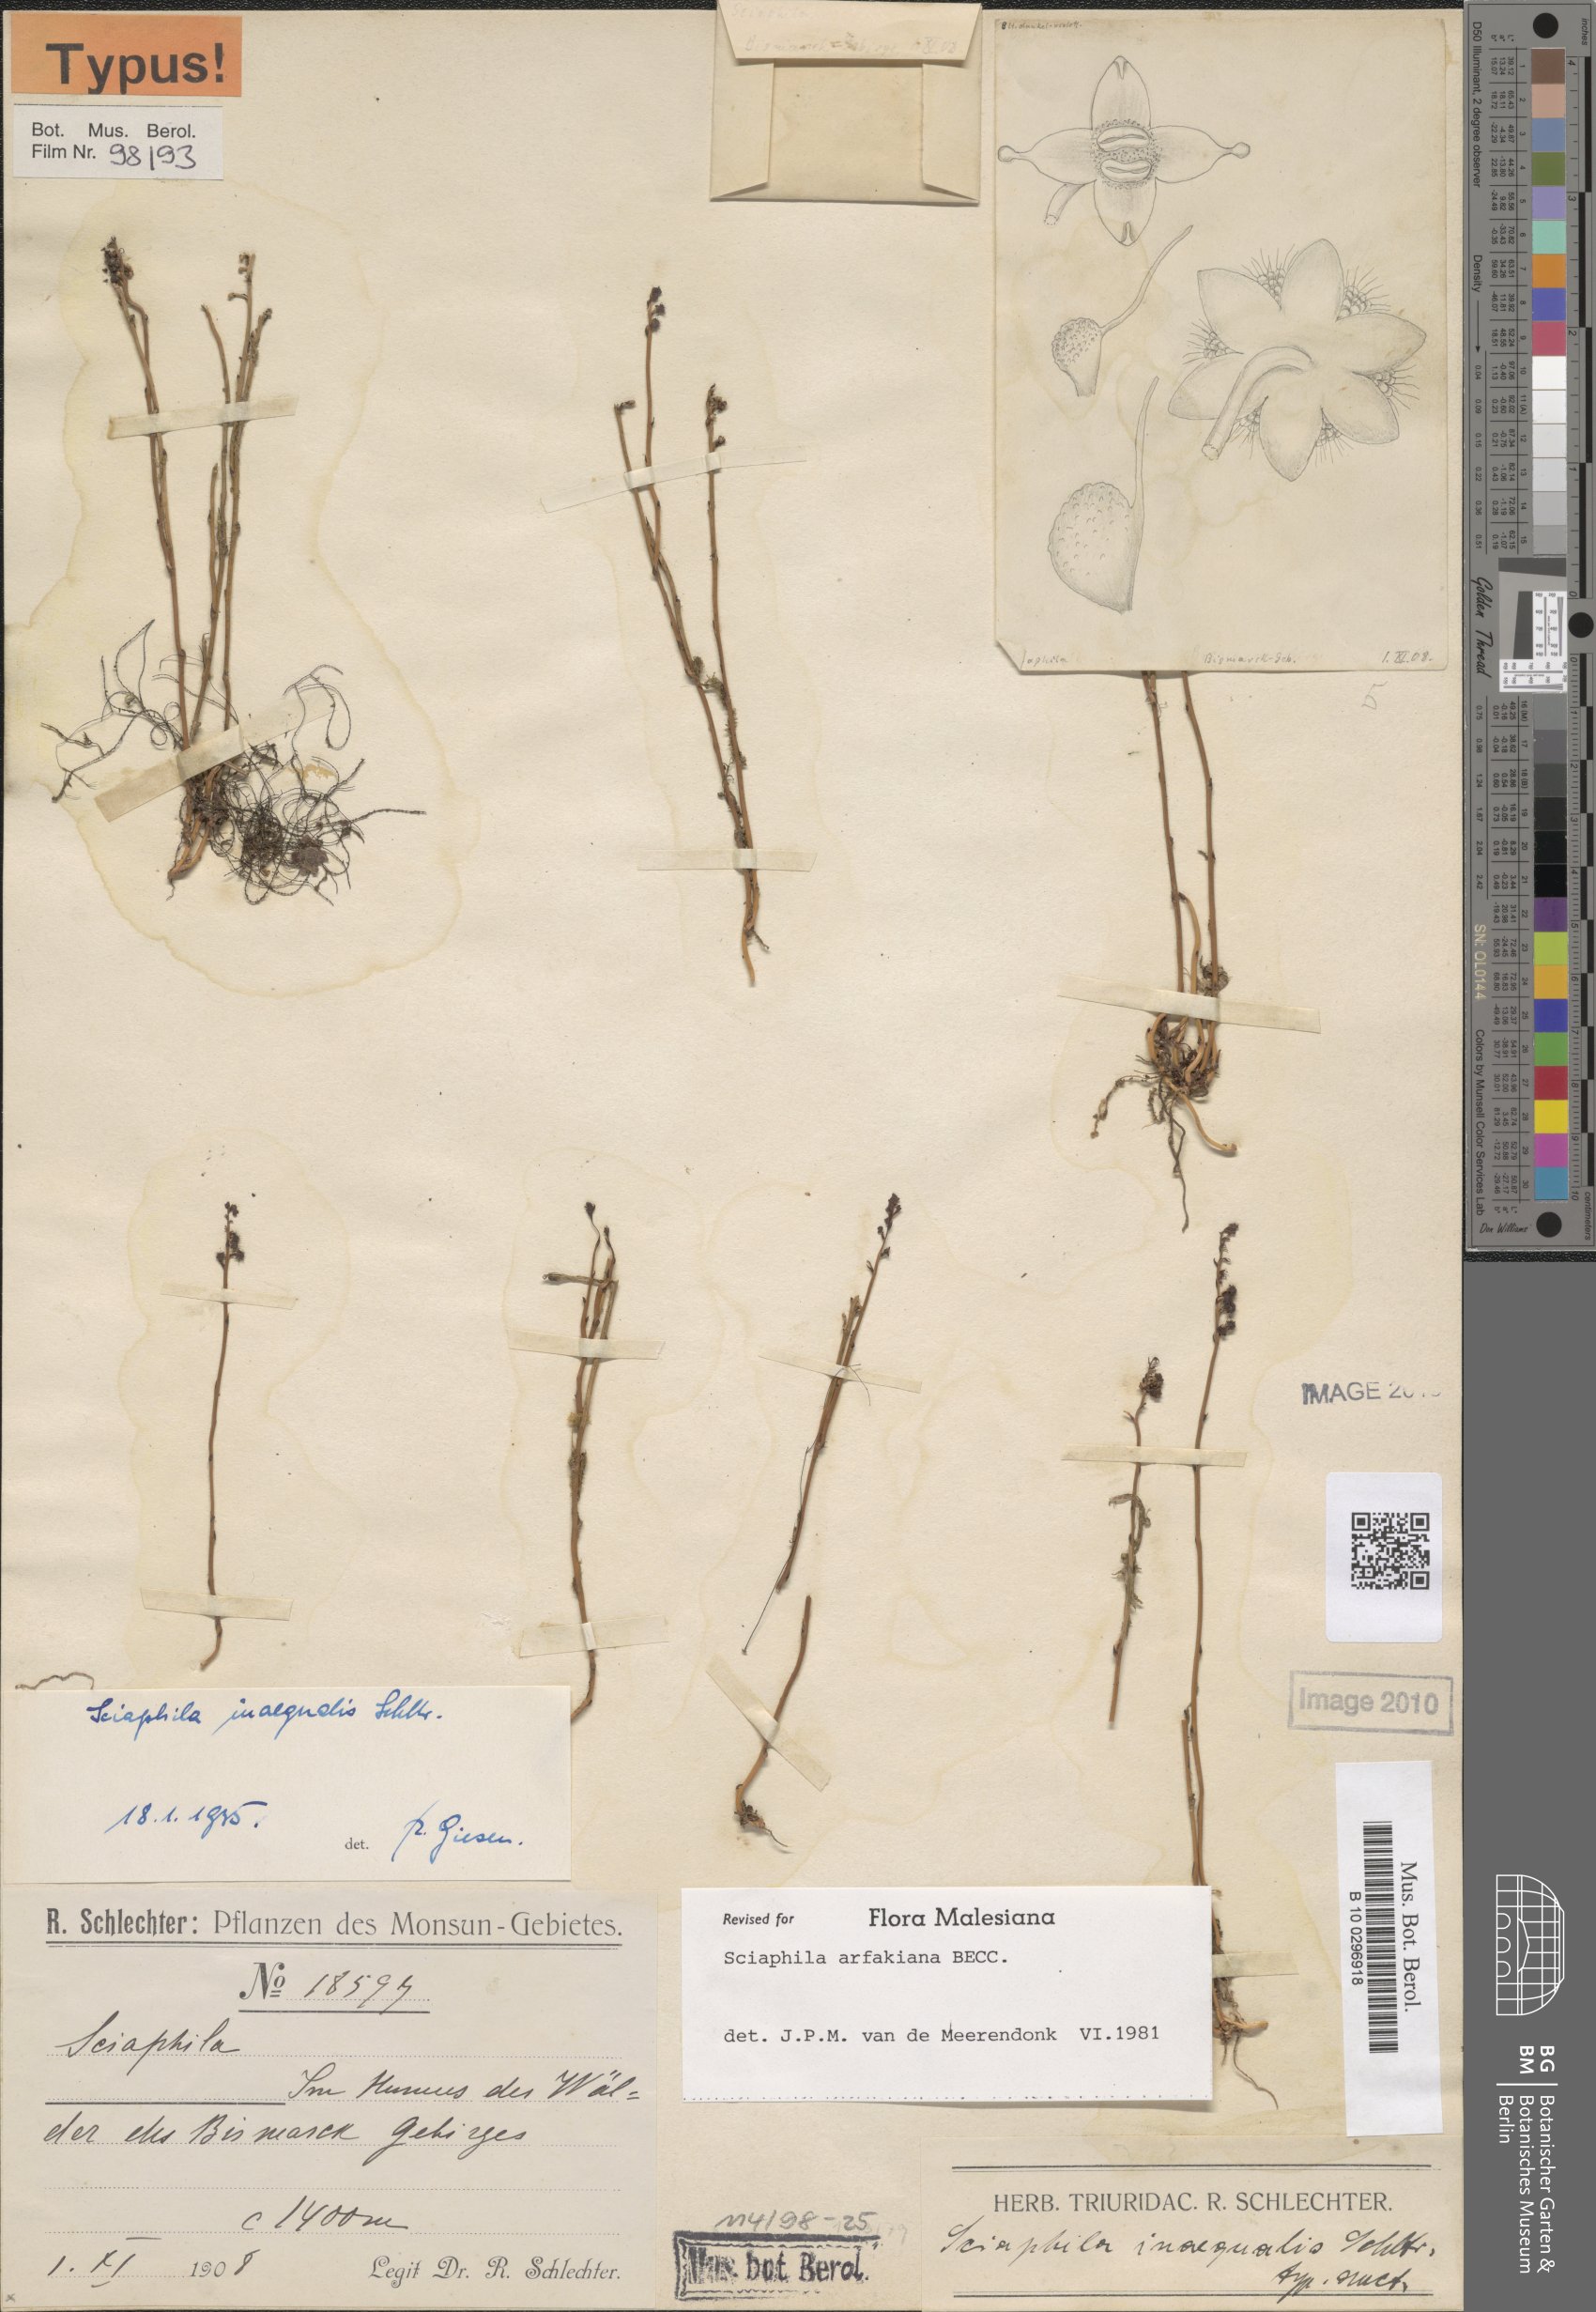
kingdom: Plantae
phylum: Tracheophyta
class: Liliopsida
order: Pandanales
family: Triuridaceae
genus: Sciaphila
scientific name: Sciaphila arfakiana
